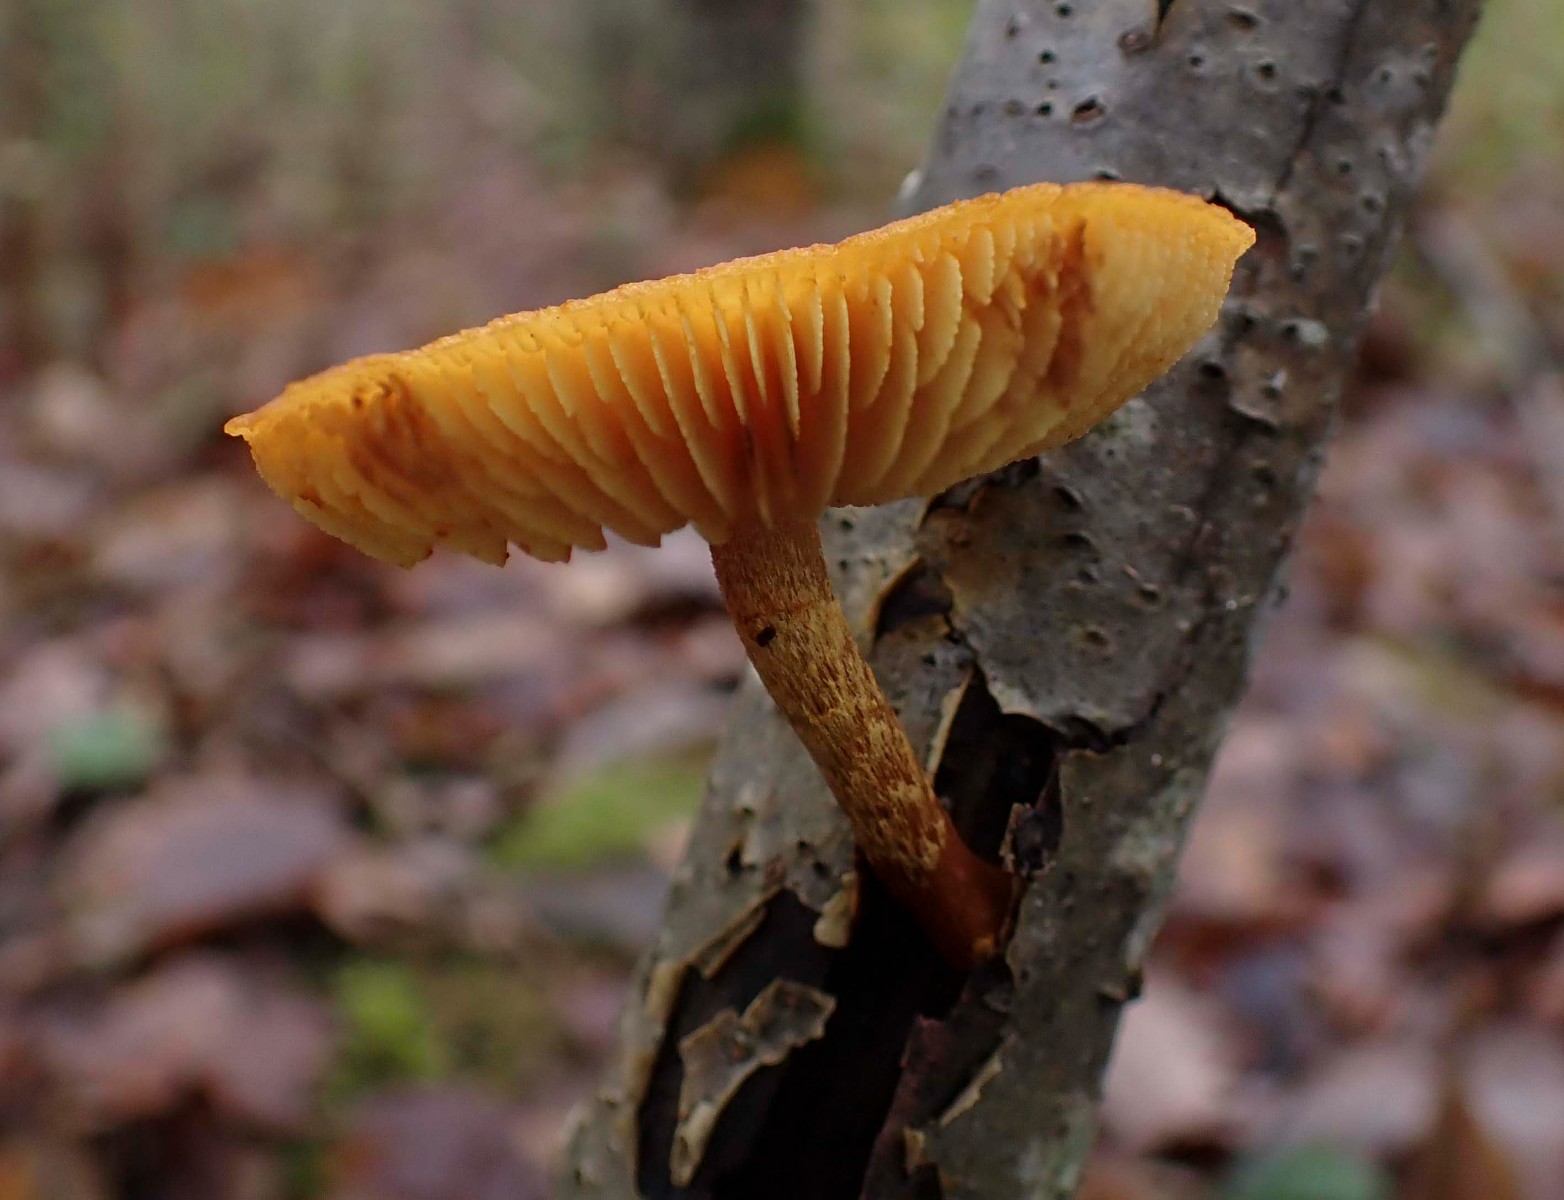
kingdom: Fungi
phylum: Basidiomycota
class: Agaricomycetes
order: Agaricales
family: Strophariaceae
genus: Pholiota
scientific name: Pholiota tuberculosa
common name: finskællet skælhat
